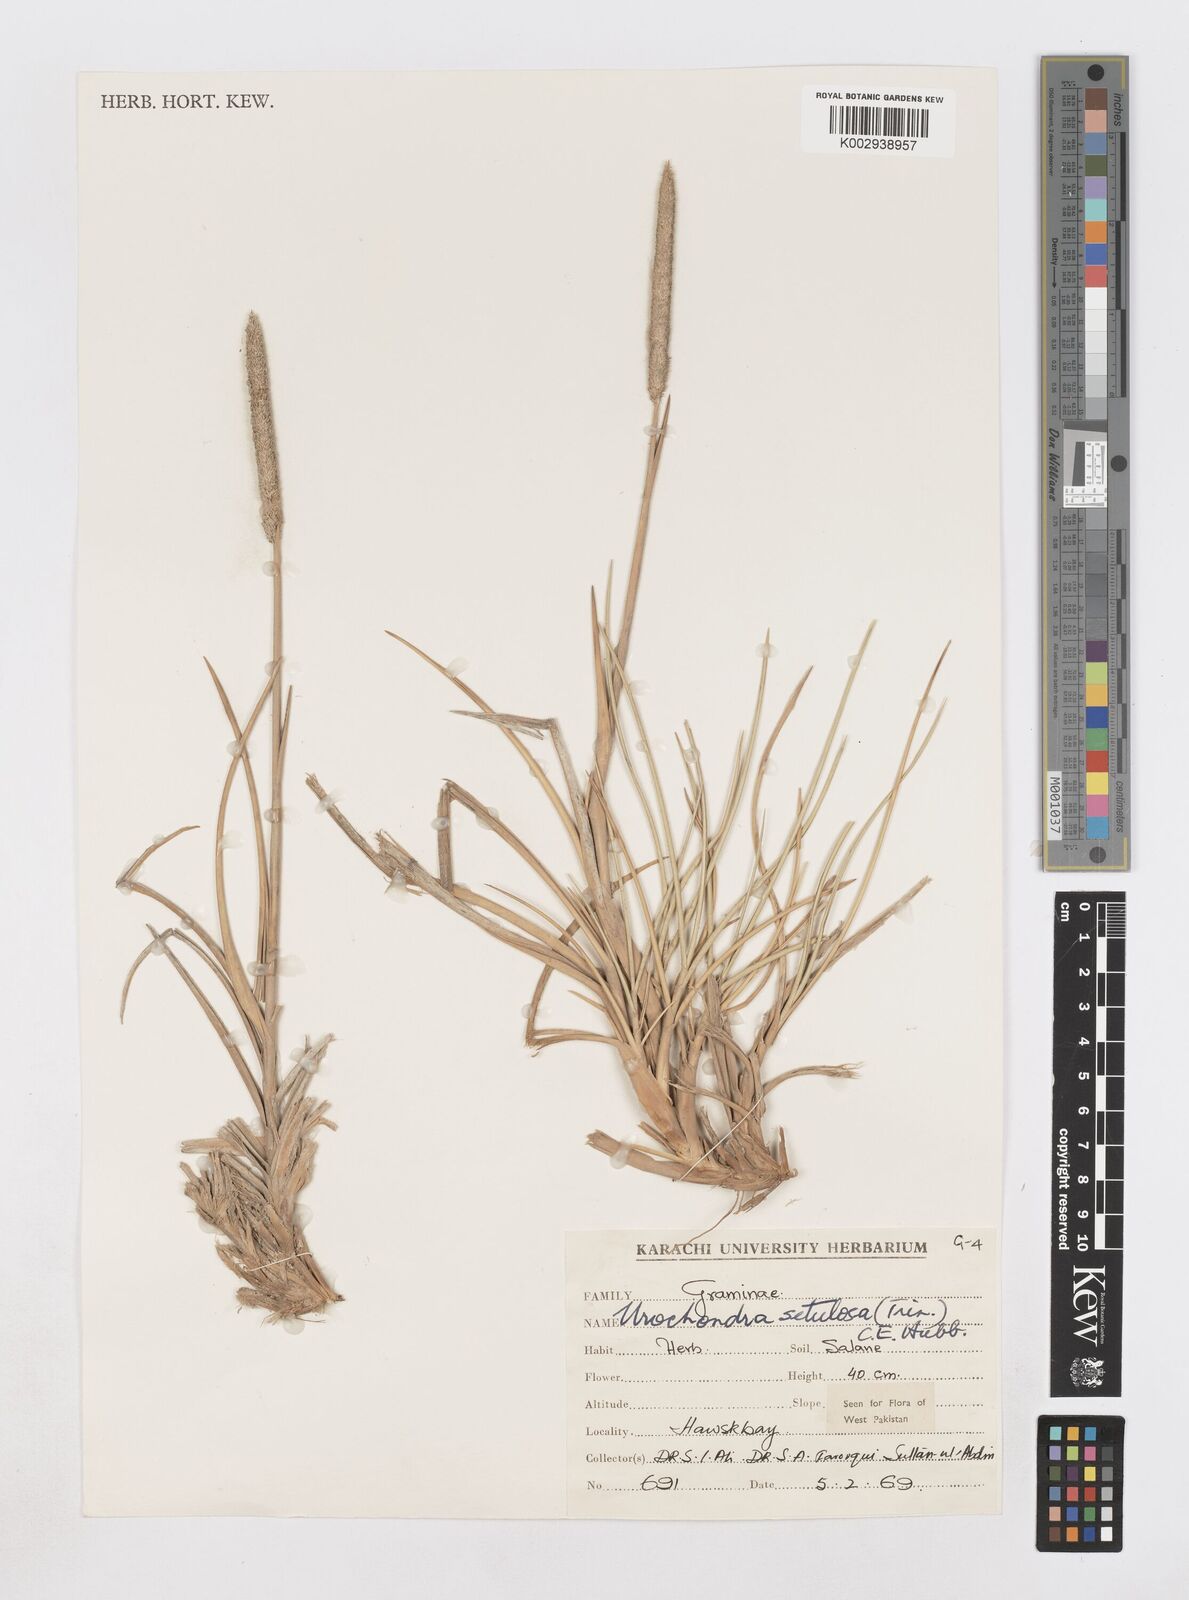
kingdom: Plantae
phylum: Tracheophyta
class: Liliopsida
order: Poales
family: Poaceae
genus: Urochondra
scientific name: Urochondra setulosa
